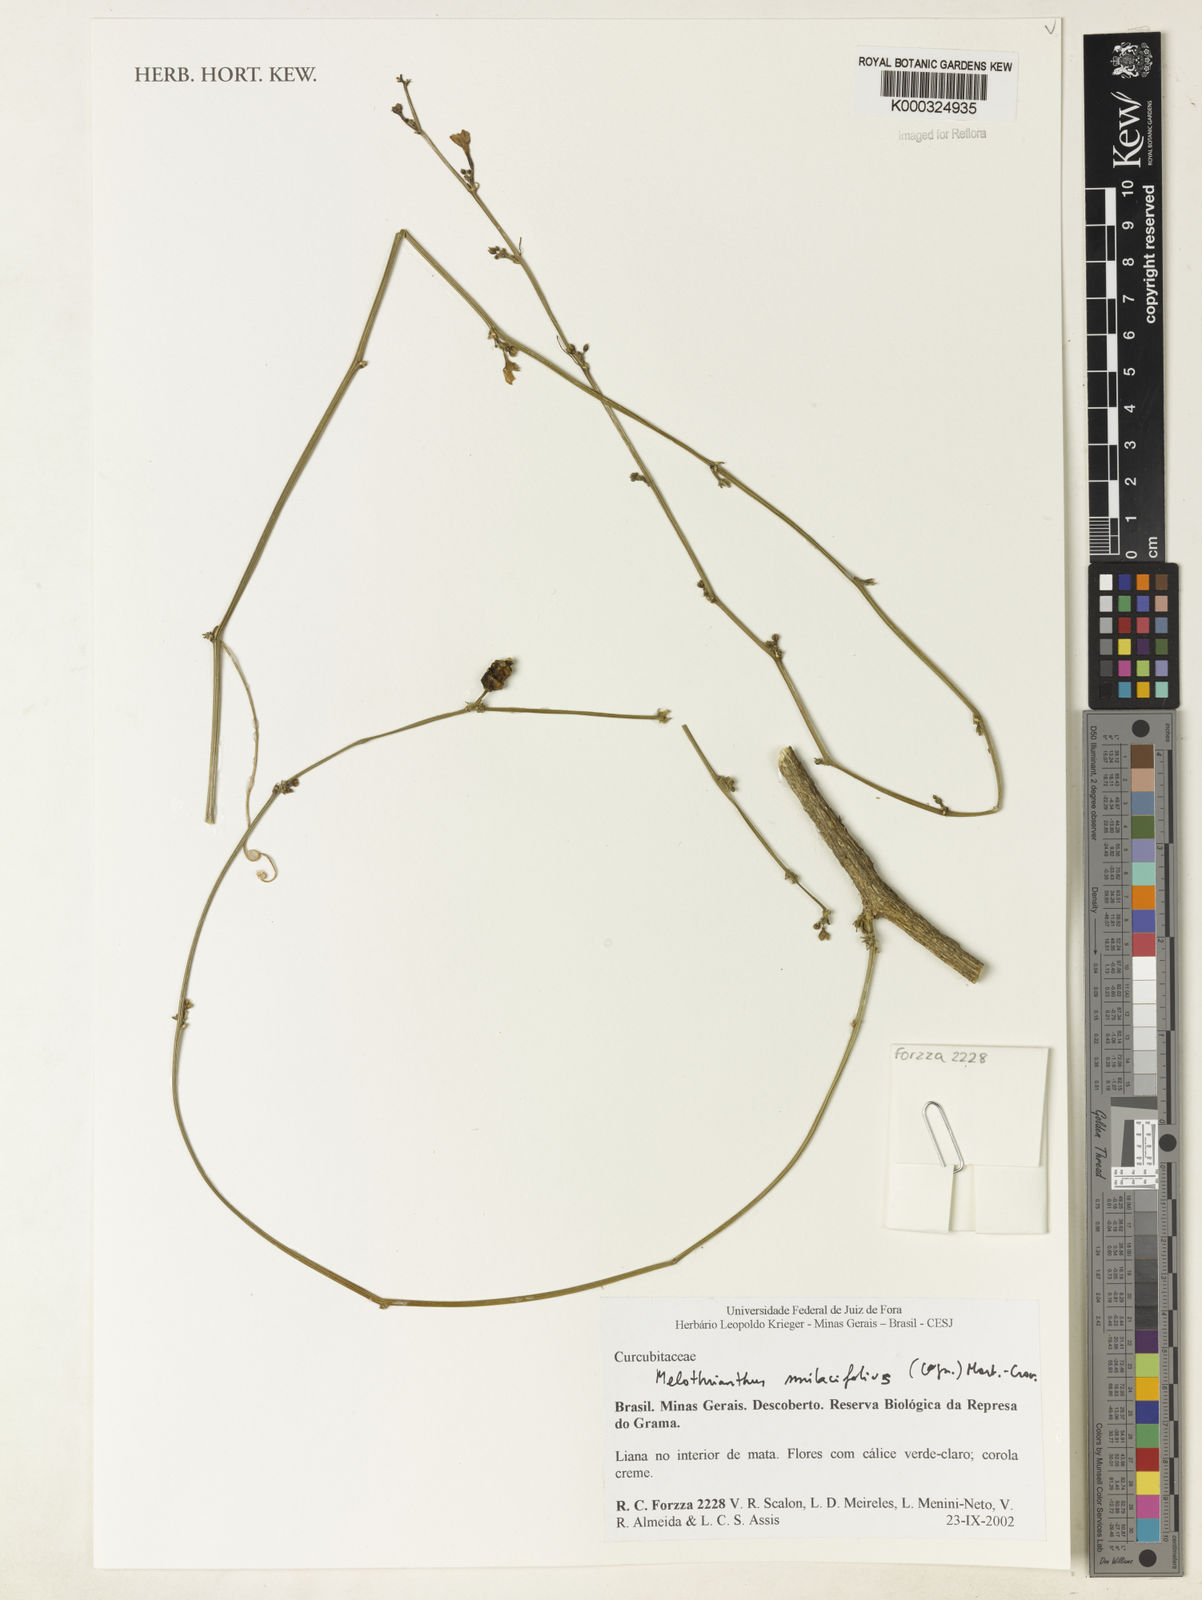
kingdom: Plantae
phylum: Tracheophyta
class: Magnoliopsida
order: Cucurbitales
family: Cucurbitaceae
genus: Apodanthera
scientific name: Apodanthera smilacifolia
